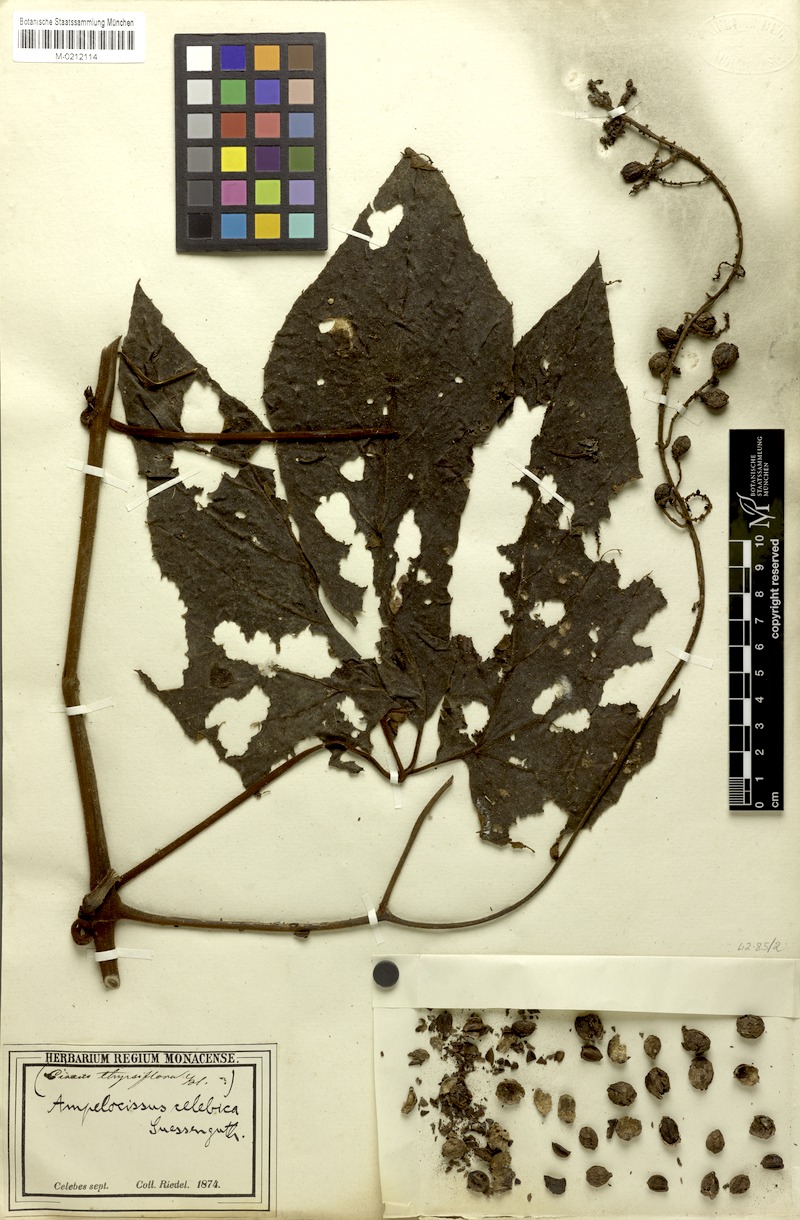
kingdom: Plantae
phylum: Tracheophyta
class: Magnoliopsida
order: Vitales
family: Vitaceae
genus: Ampelocissus
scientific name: Ampelocissus celebica
